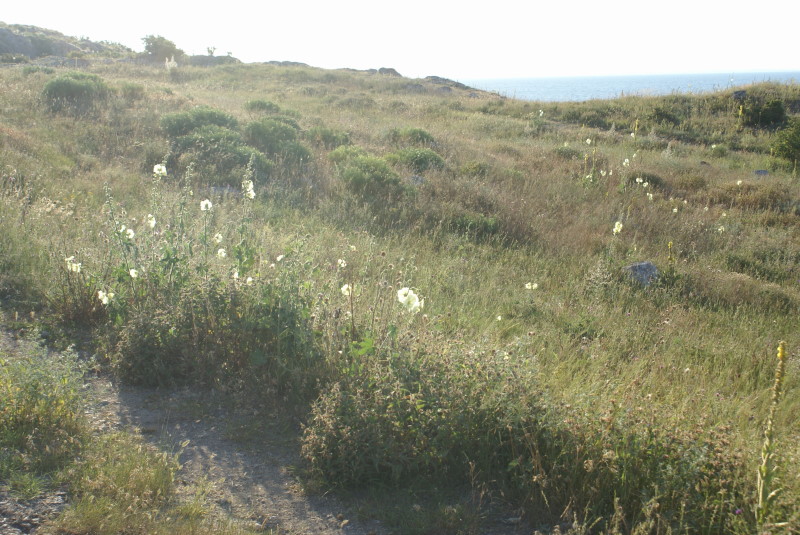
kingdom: Plantae
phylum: Tracheophyta
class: Magnoliopsida
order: Malvales
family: Malvaceae
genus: Alcea
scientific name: Alcea rugosa
